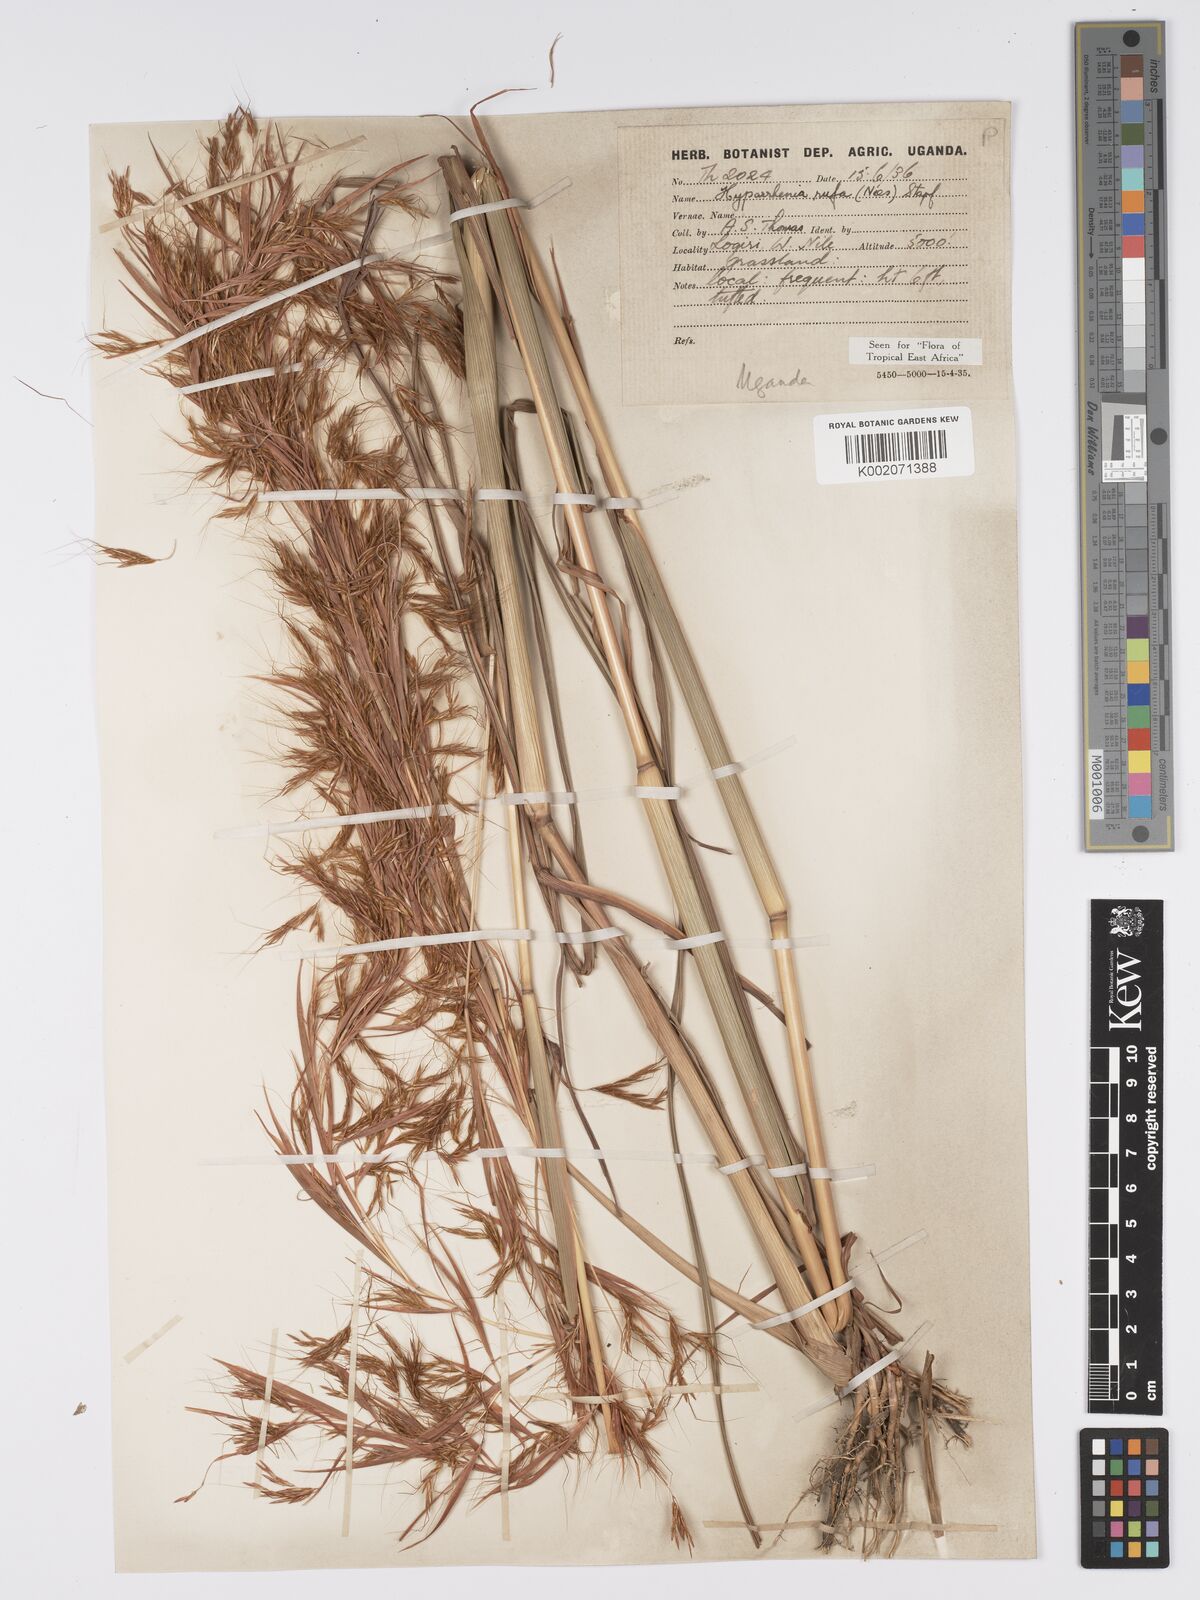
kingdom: Plantae
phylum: Tracheophyta
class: Liliopsida
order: Poales
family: Poaceae
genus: Hyparrhenia
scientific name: Hyparrhenia rufa
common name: Jaraguagrass
